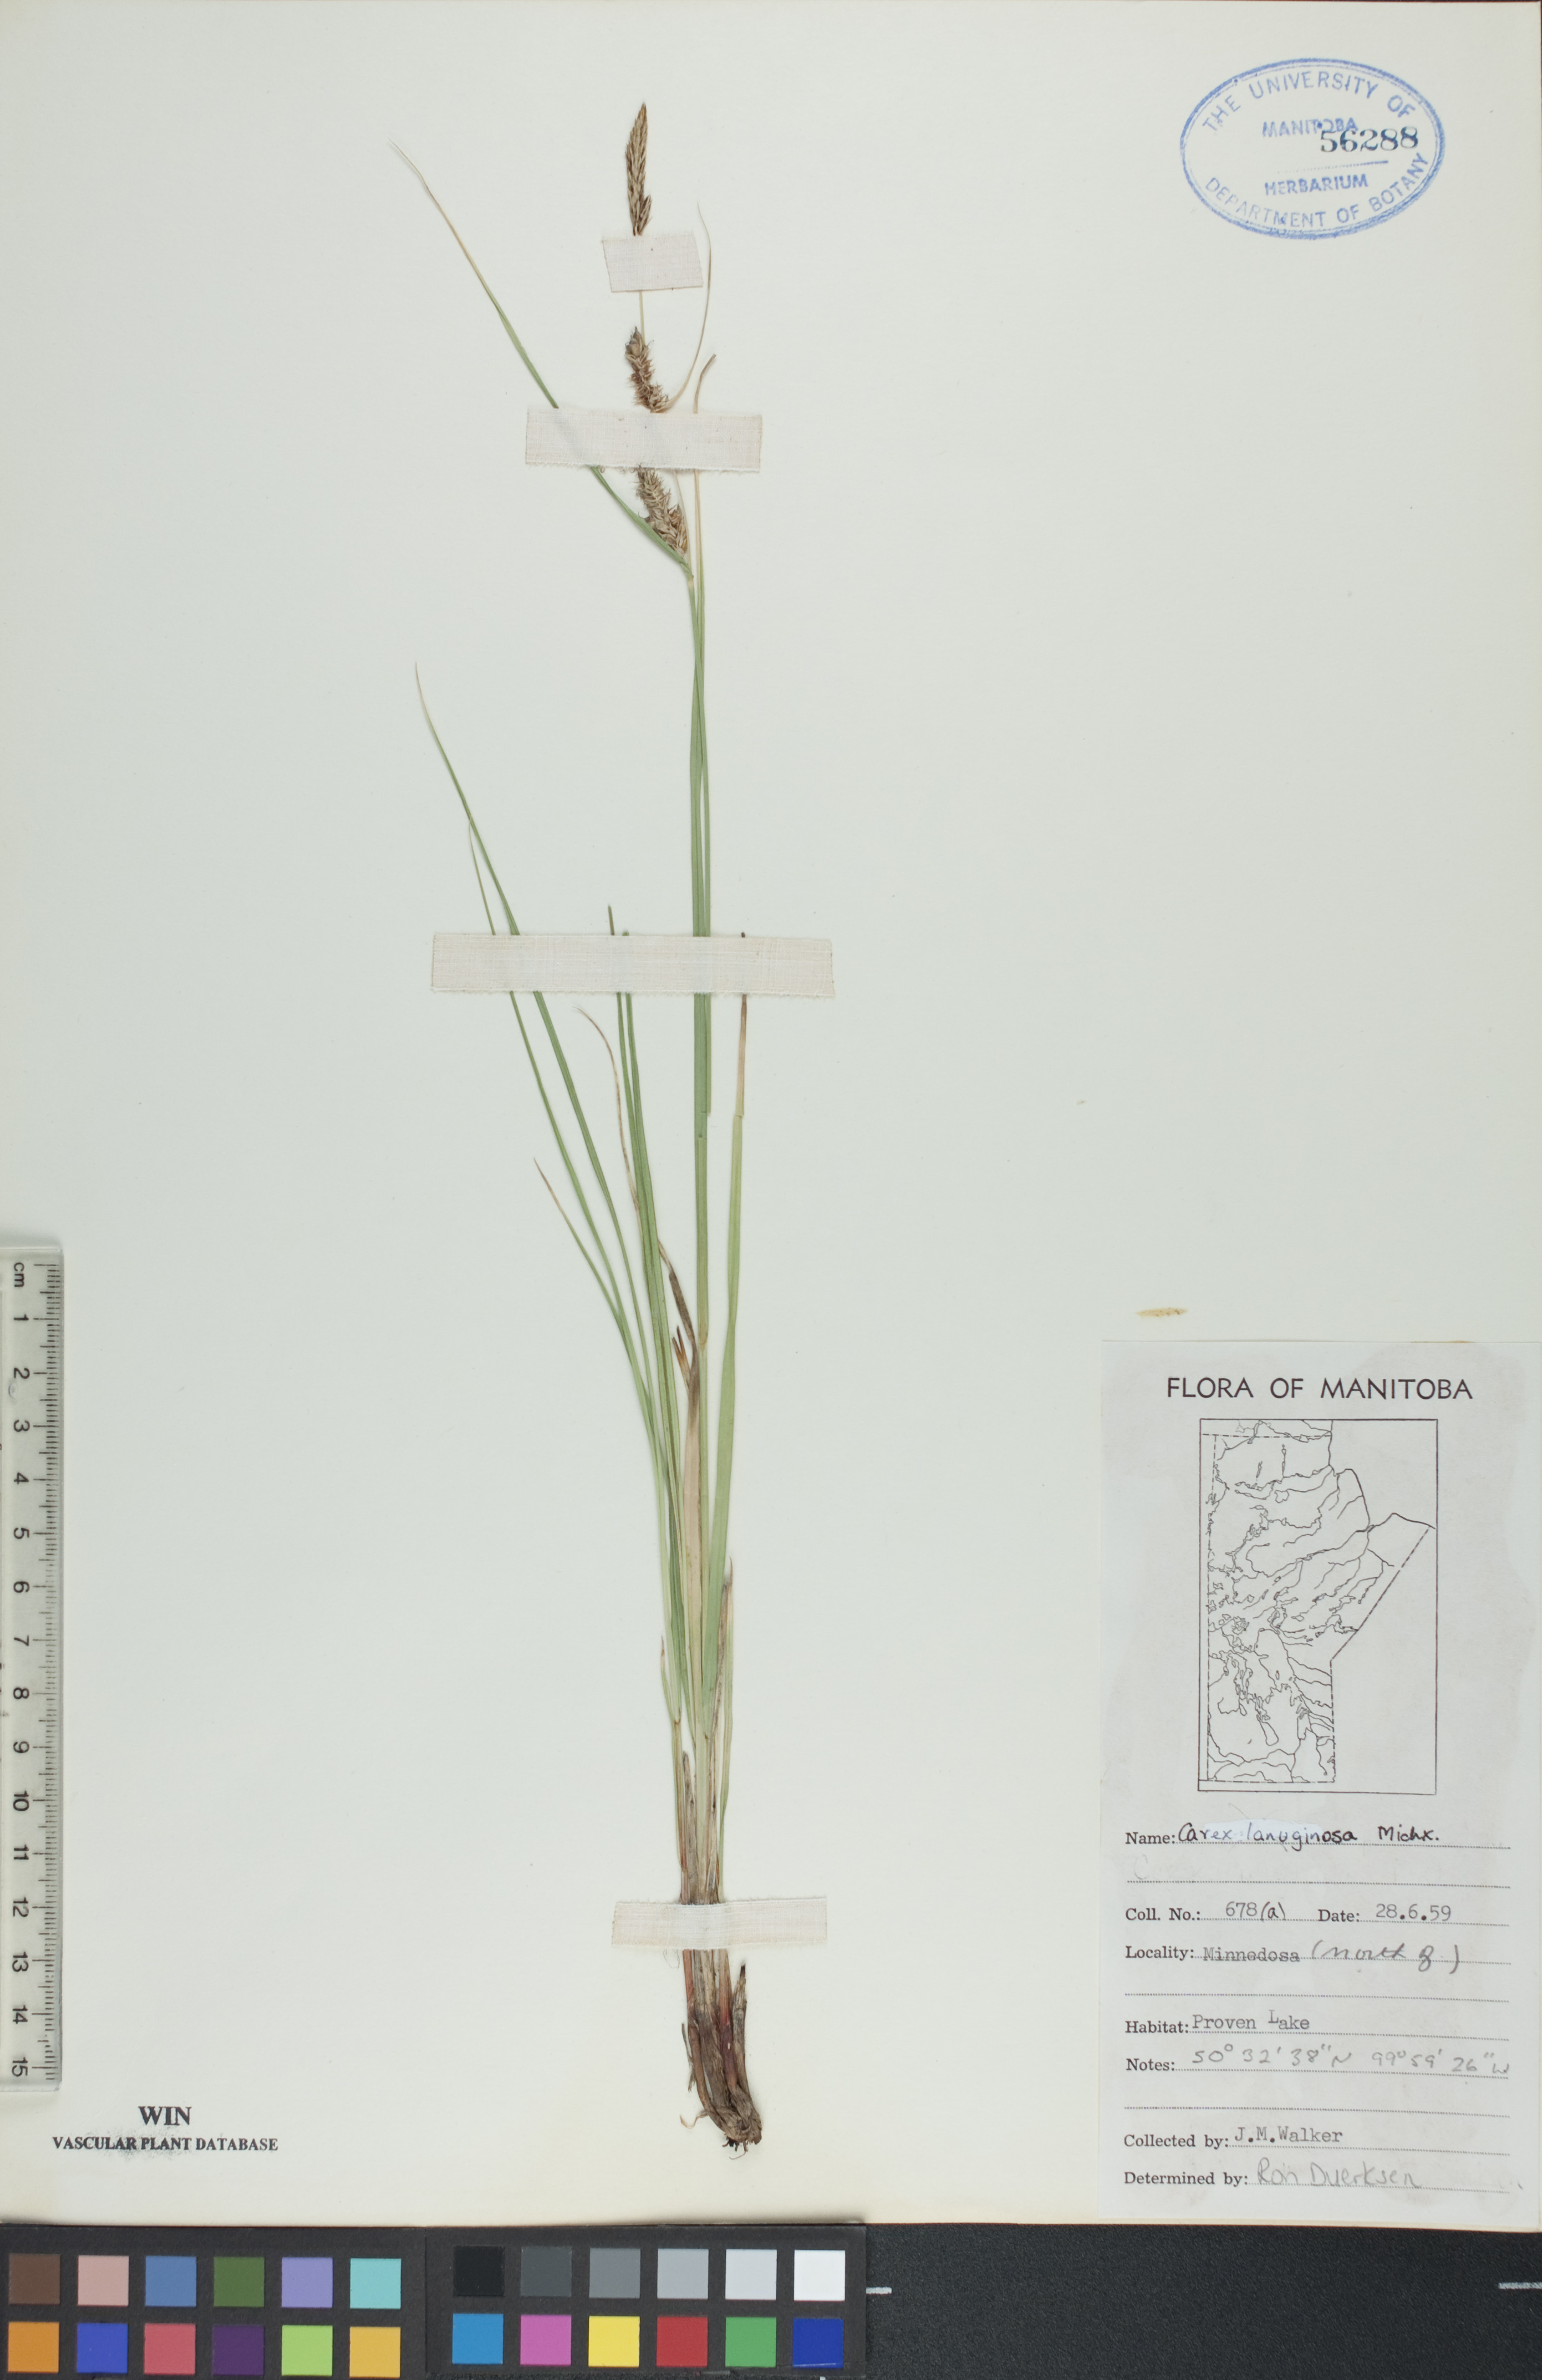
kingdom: Plantae
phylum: Tracheophyta
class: Liliopsida
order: Poales
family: Cyperaceae
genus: Carex
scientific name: Carex lasiocarpa
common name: Slender sedge
